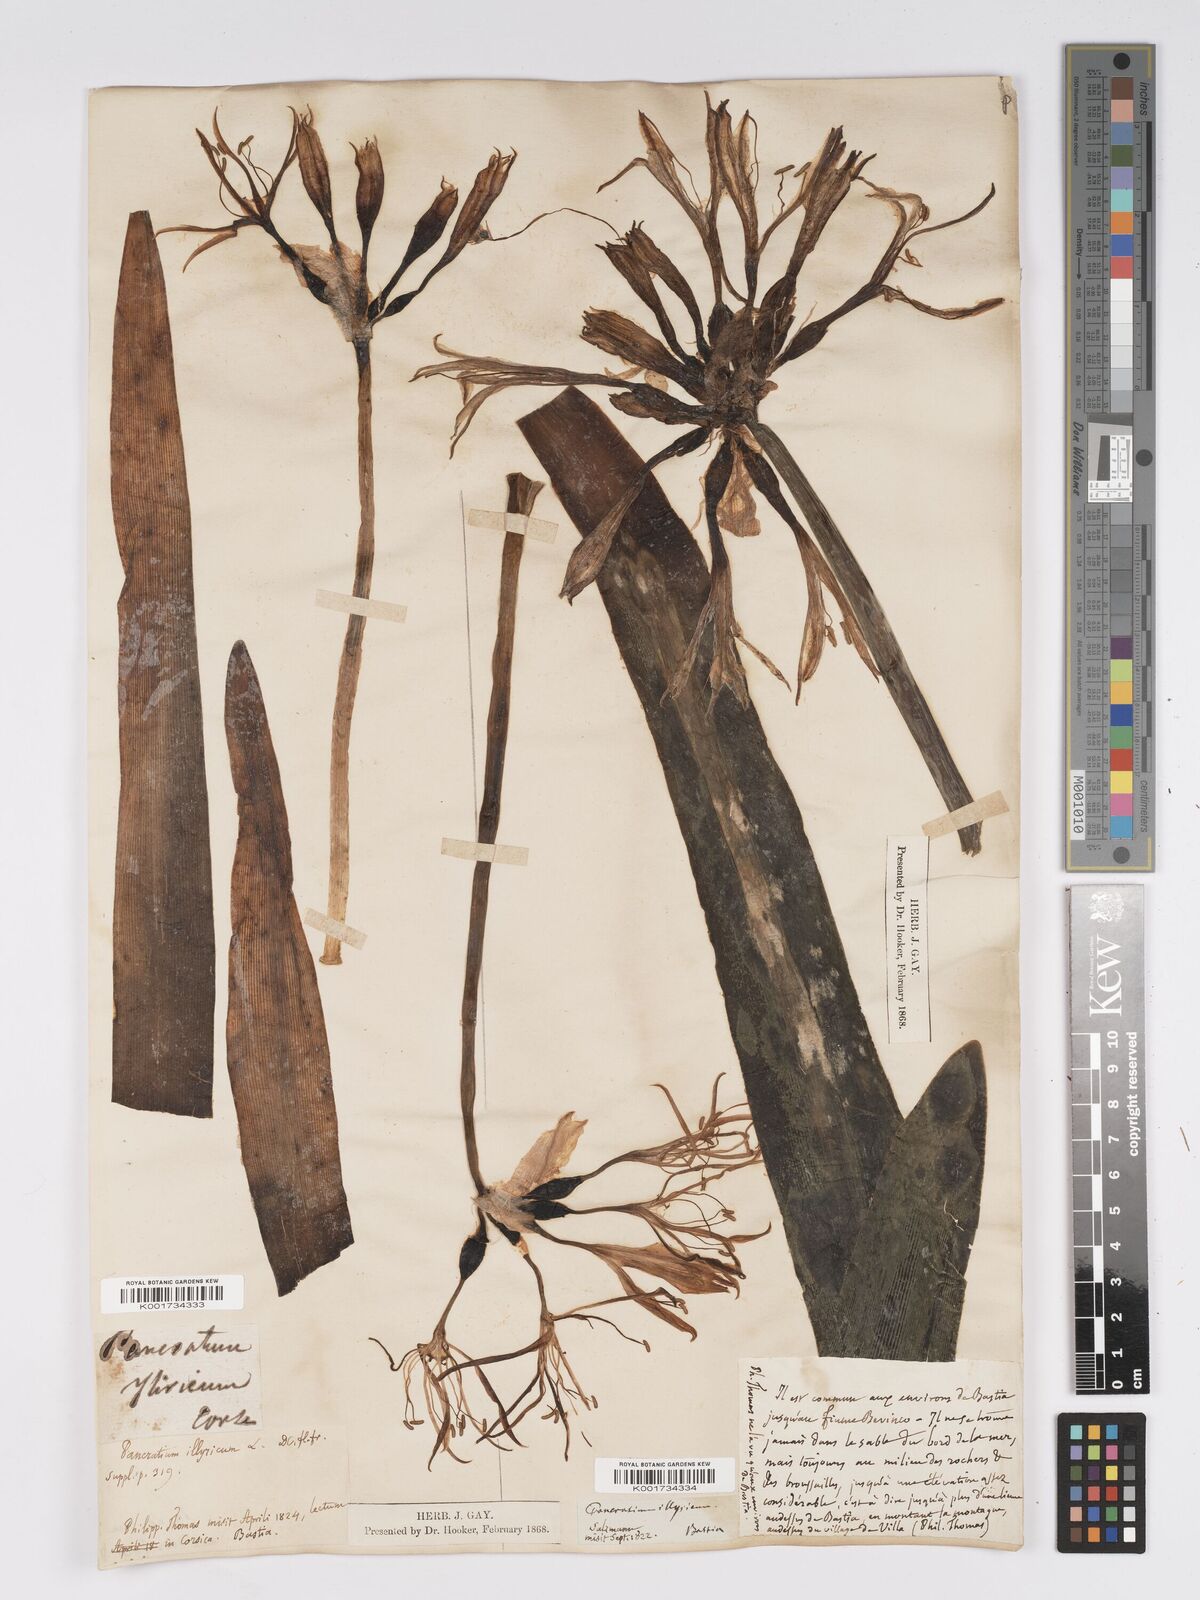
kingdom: Plantae
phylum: Tracheophyta
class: Liliopsida
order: Asparagales
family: Amaryllidaceae
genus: Pancratium
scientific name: Pancratium illyricum
